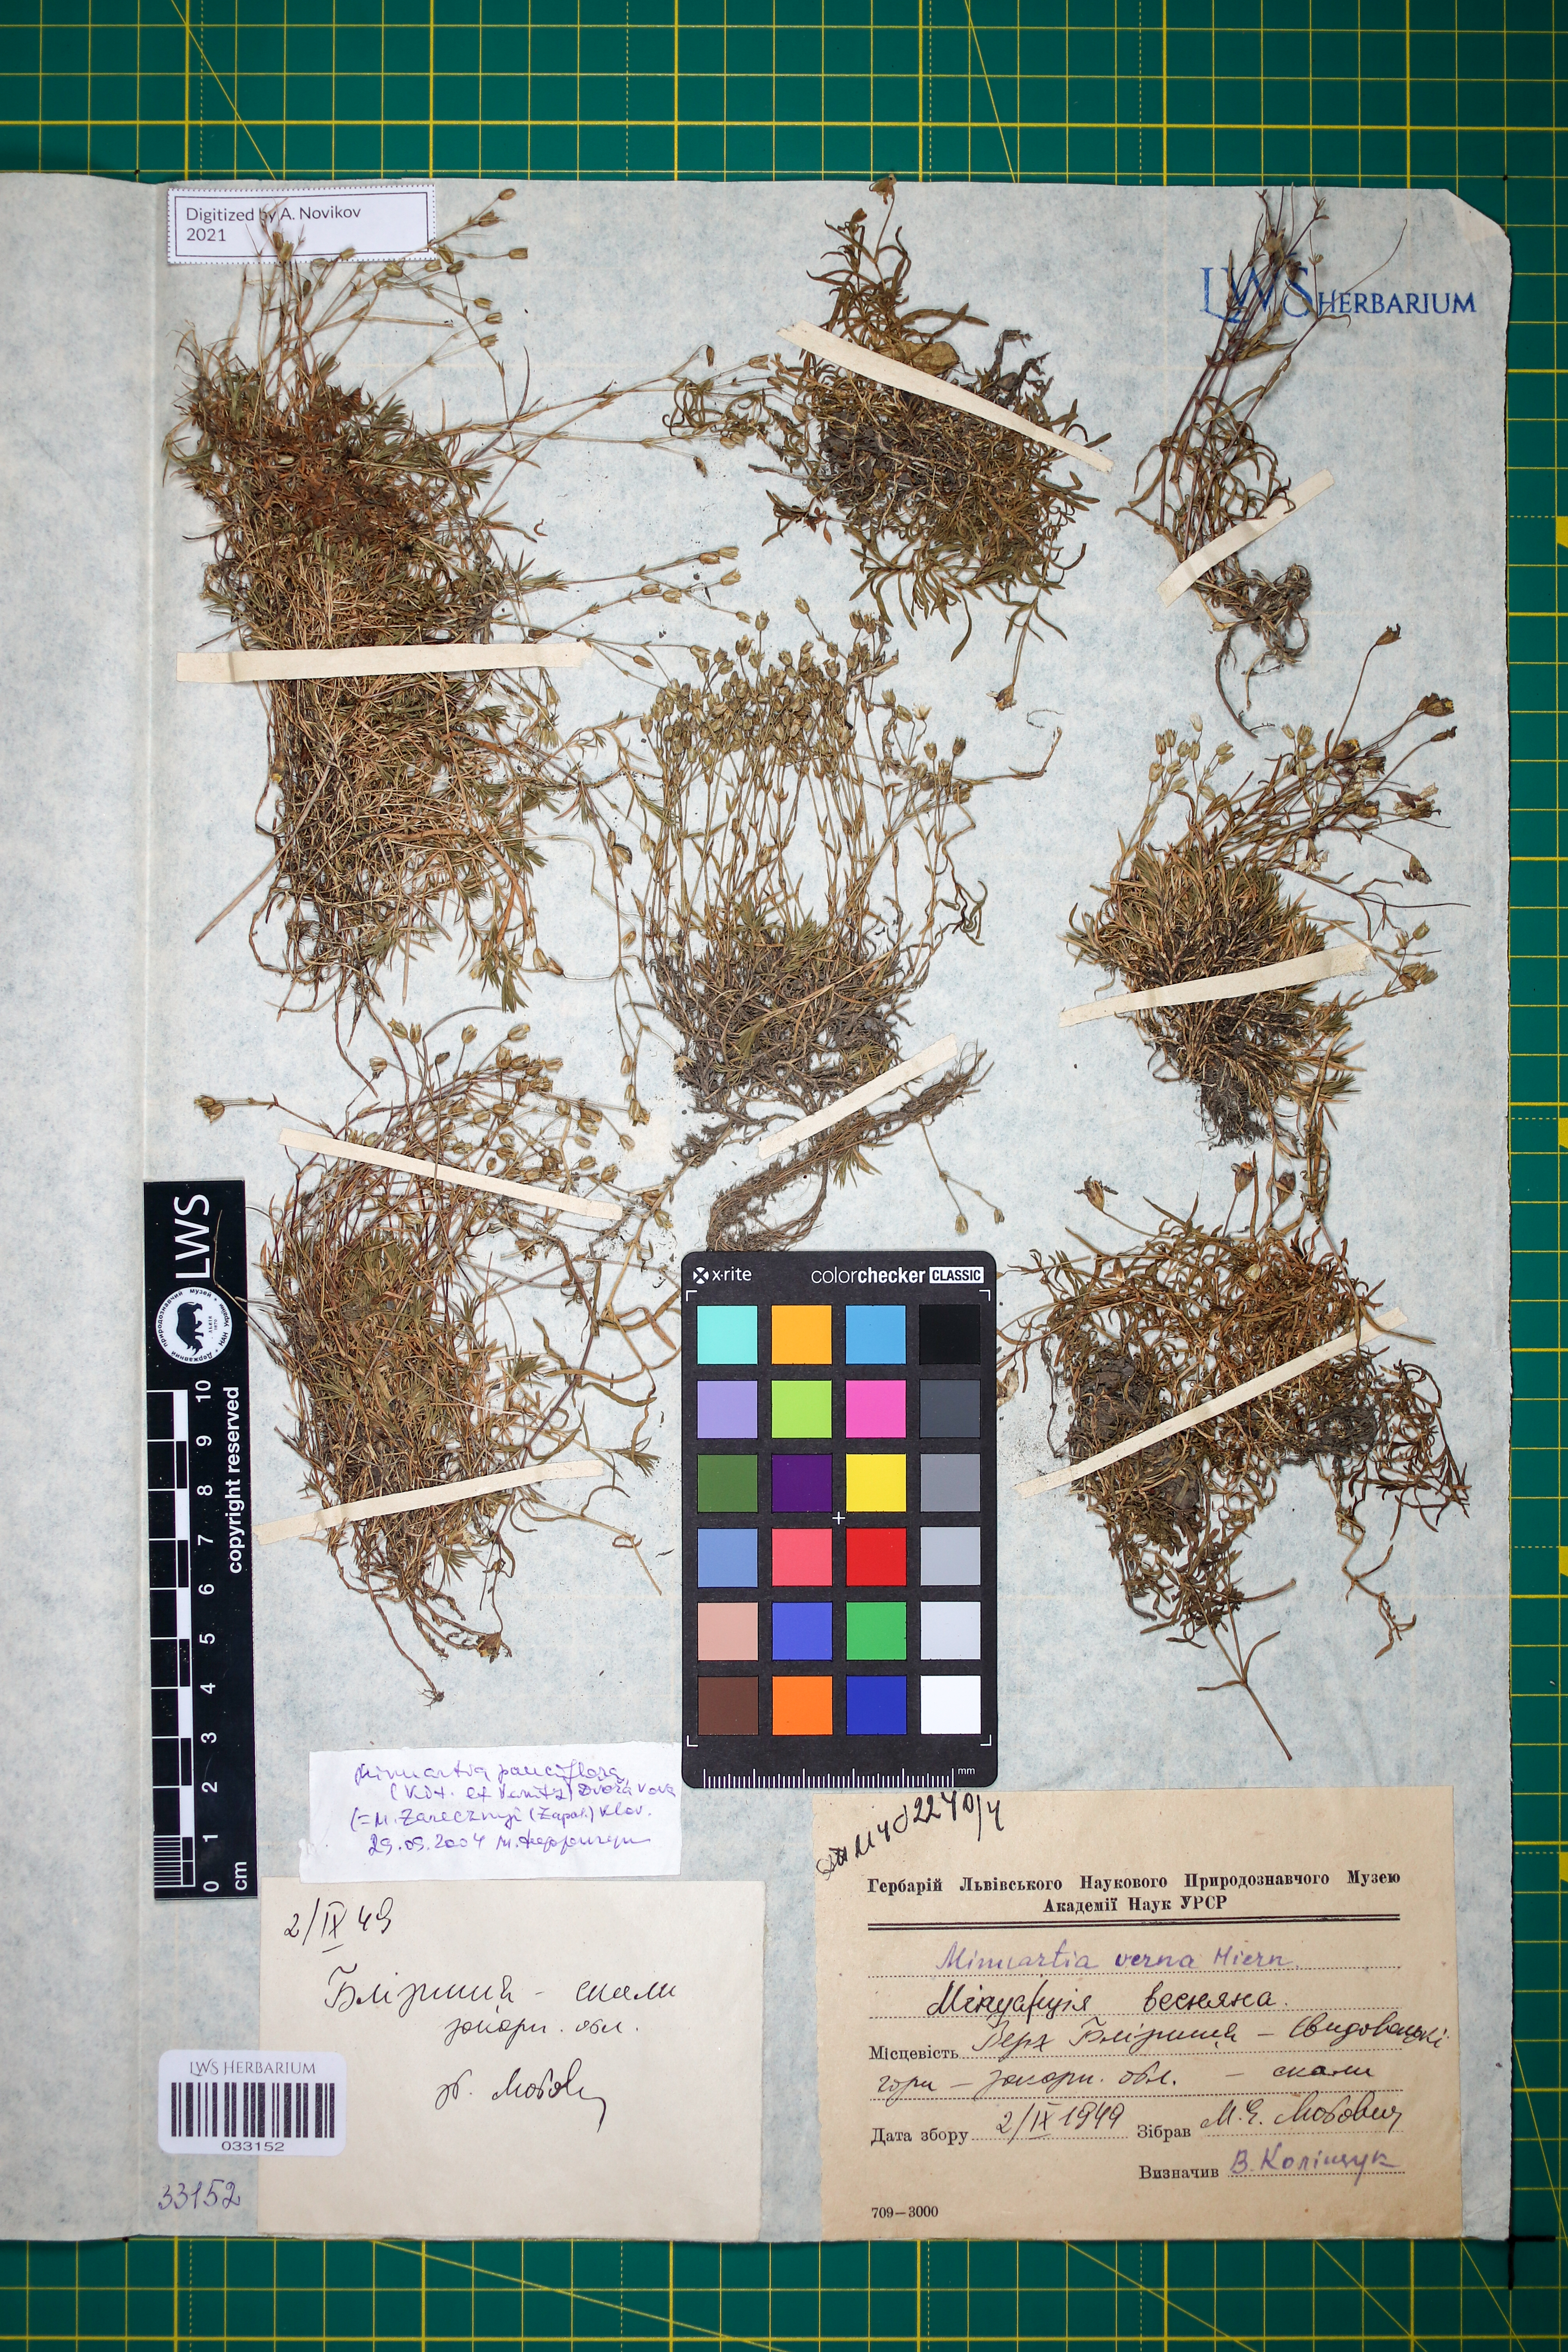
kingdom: Plantae
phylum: Tracheophyta
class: Magnoliopsida
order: Caryophyllales
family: Caryophyllaceae
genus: Minuartia
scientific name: Minuartia pauciflora
